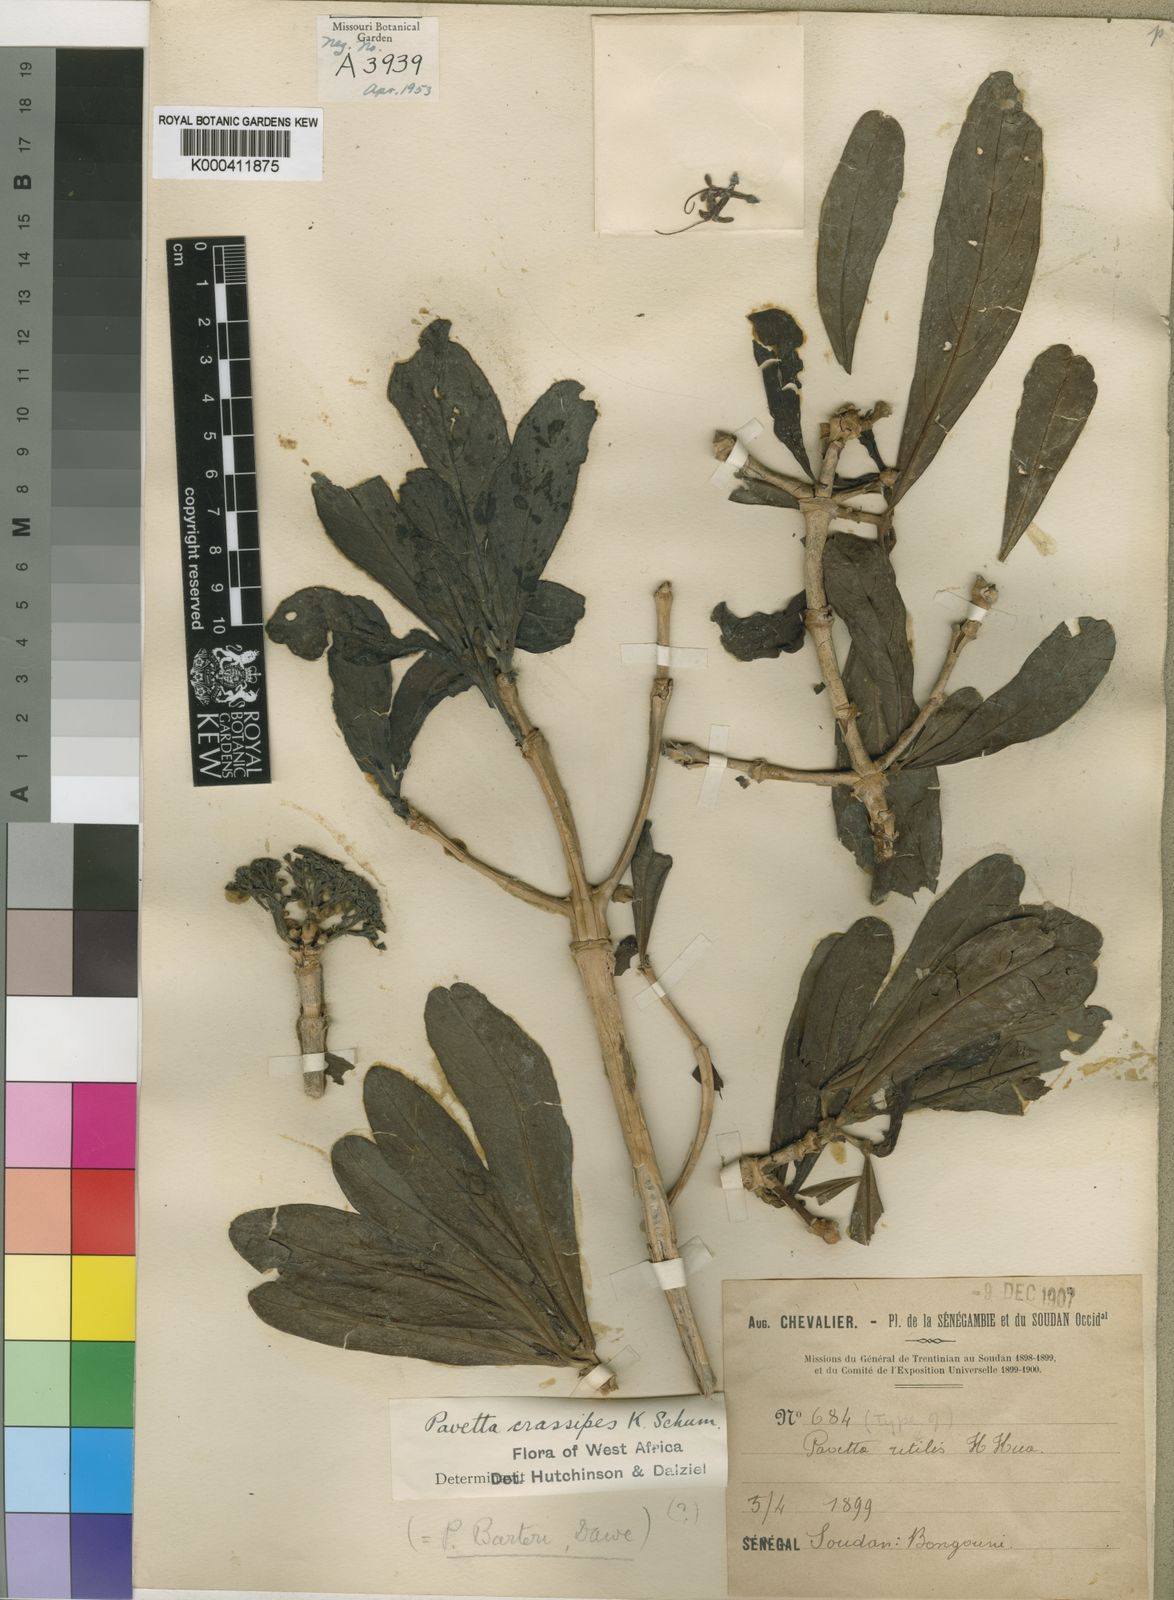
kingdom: Plantae
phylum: Tracheophyta
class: Magnoliopsida
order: Gentianales
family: Rubiaceae
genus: Pavetta
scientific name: Pavetta crassipes
